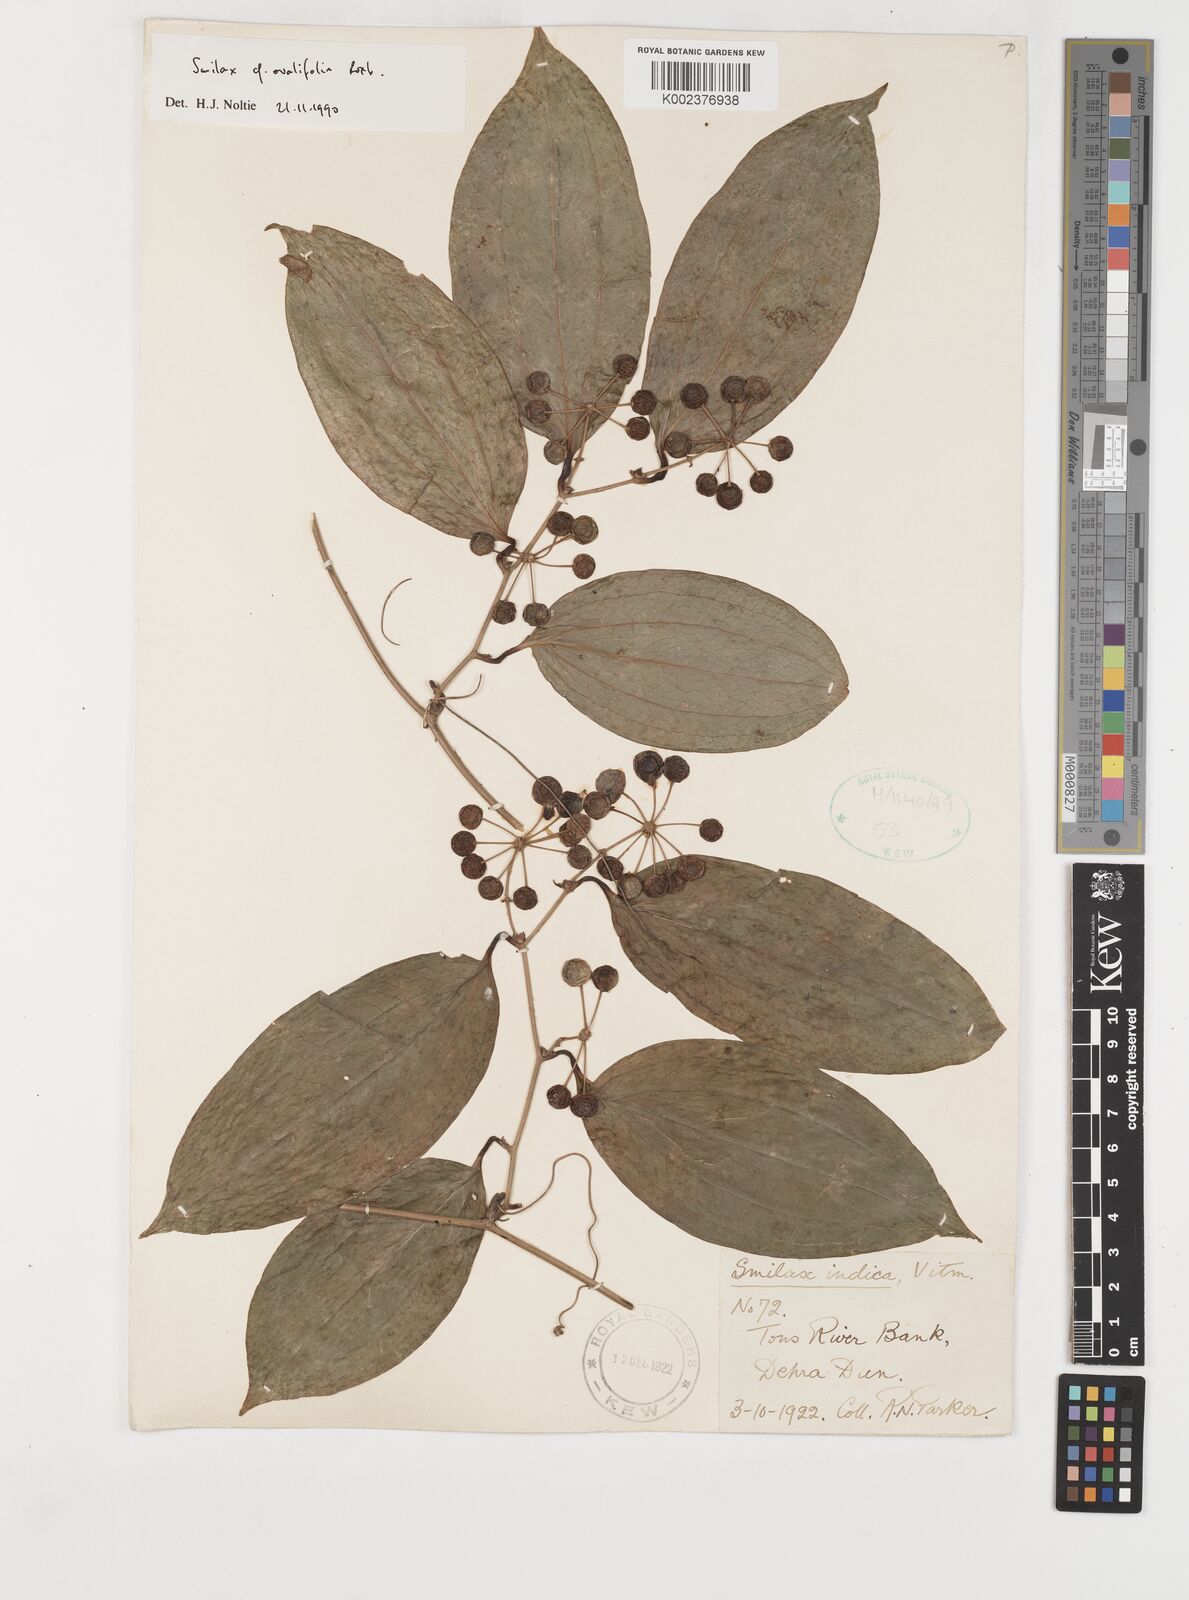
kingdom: Plantae
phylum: Tracheophyta
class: Liliopsida
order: Liliales
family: Smilacaceae
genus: Smilax
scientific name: Smilax ovalifolia
